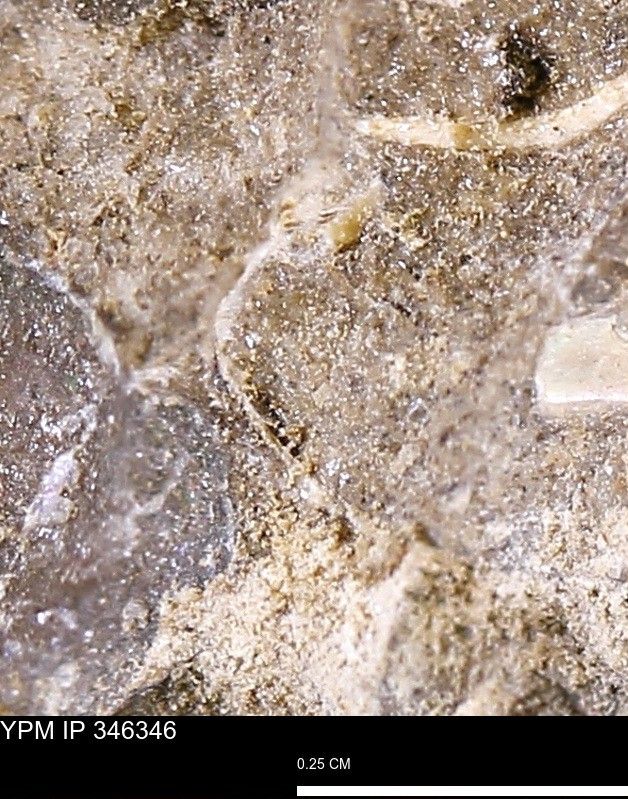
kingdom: Animalia
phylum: Mollusca
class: Bivalvia
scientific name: Bivalvia
